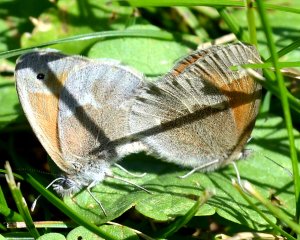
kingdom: Animalia
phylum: Arthropoda
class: Insecta
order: Lepidoptera
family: Nymphalidae
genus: Coenonympha
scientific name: Coenonympha tullia
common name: Large Heath
